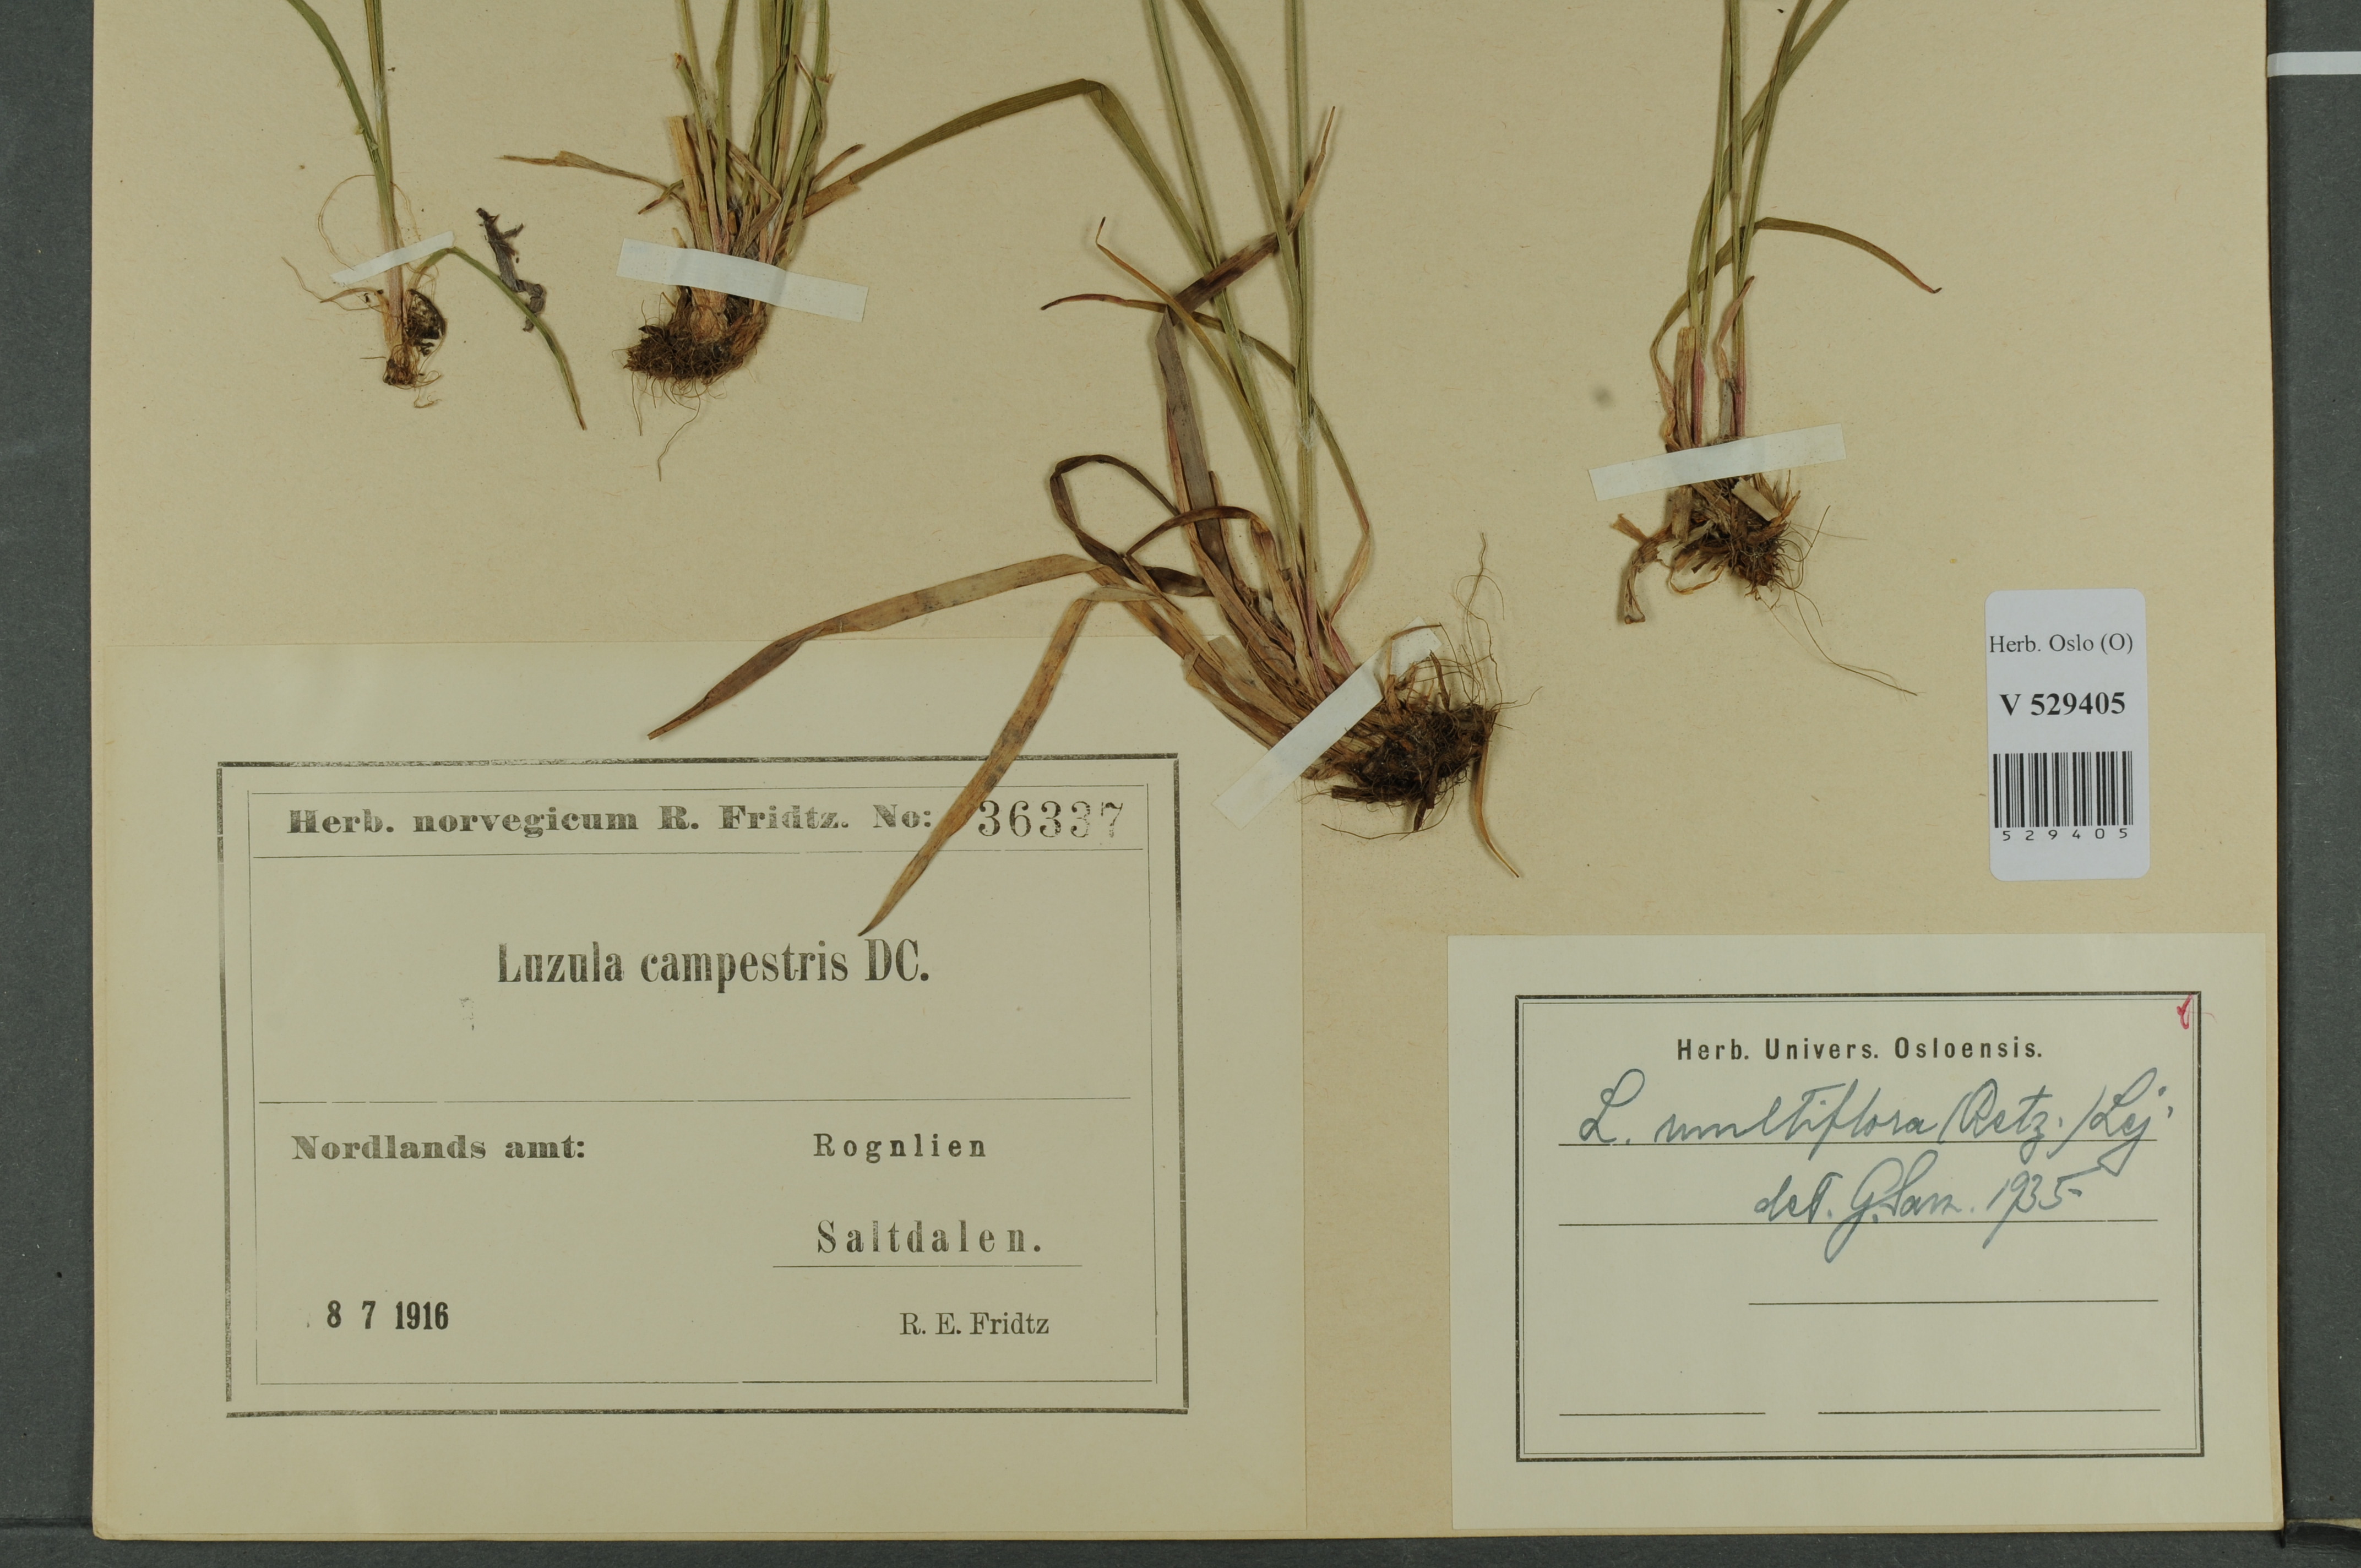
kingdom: Plantae
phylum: Tracheophyta
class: Liliopsida
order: Poales
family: Juncaceae
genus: Luzula
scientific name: Luzula multiflora
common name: Heath wood-rush
